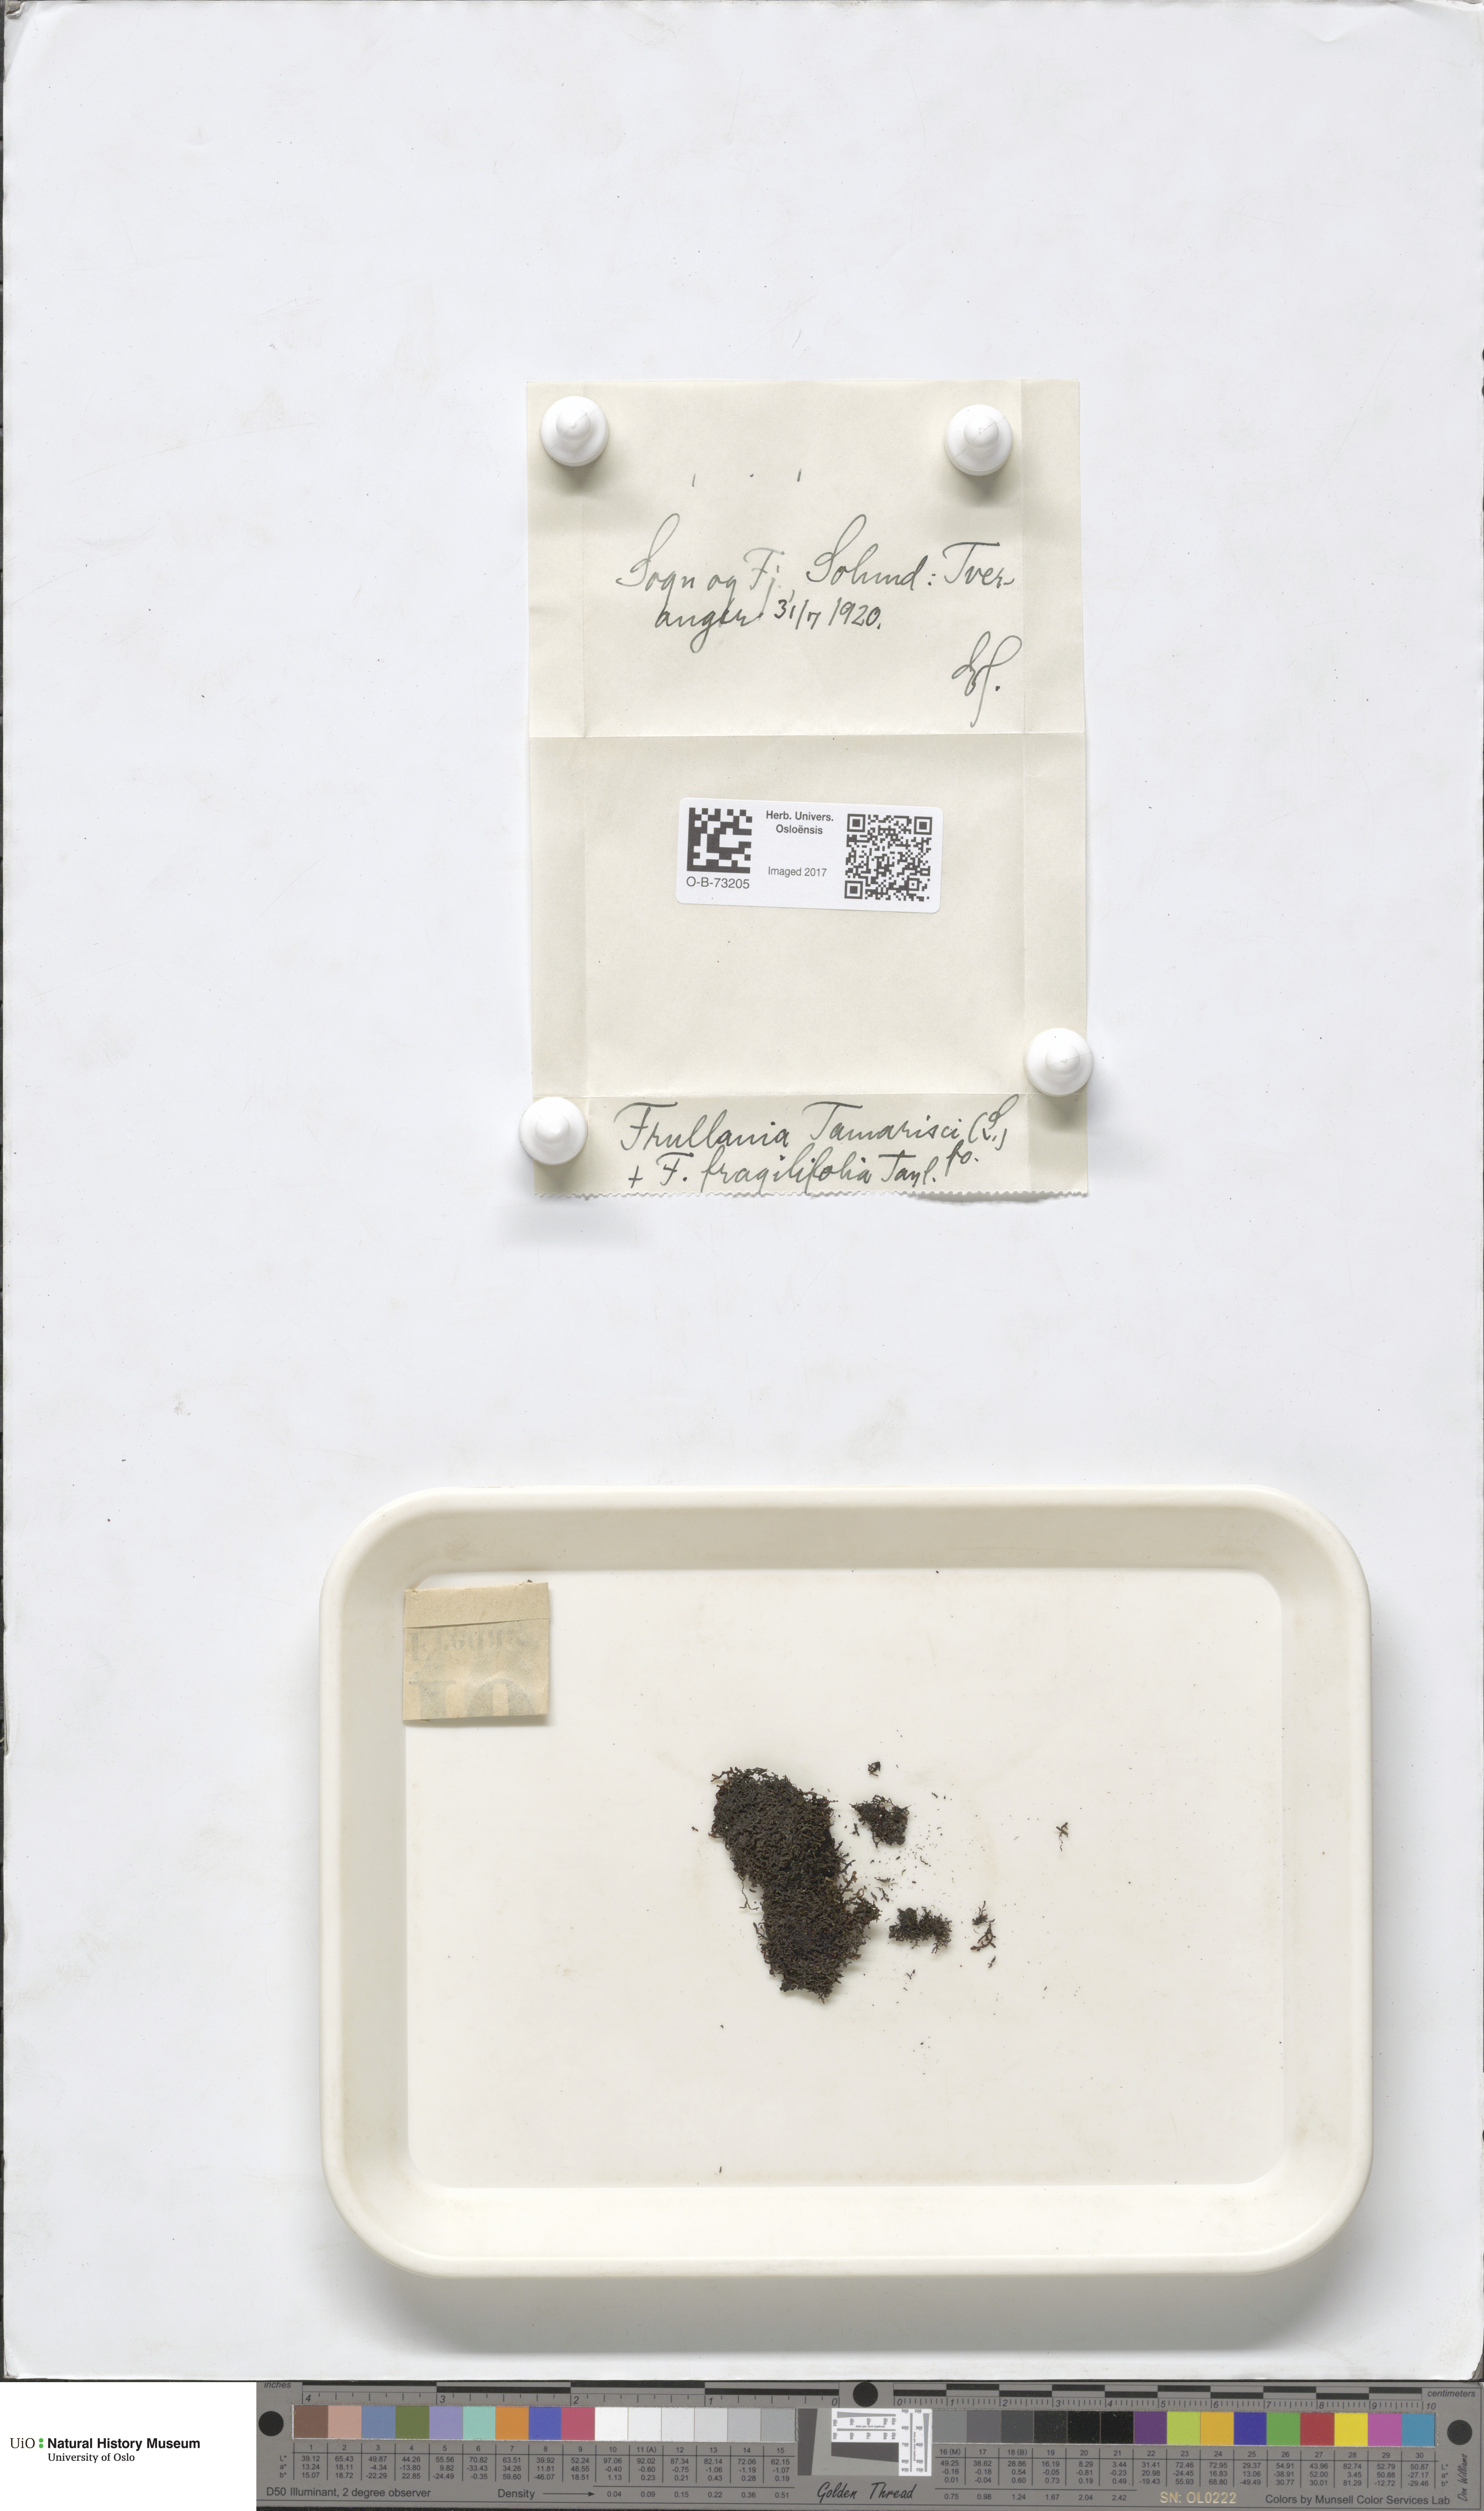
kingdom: Plantae
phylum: Marchantiophyta
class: Jungermanniopsida
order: Porellales
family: Frullaniaceae
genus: Frullania
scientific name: Frullania tamarisci
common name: Tamarisk scalewort
